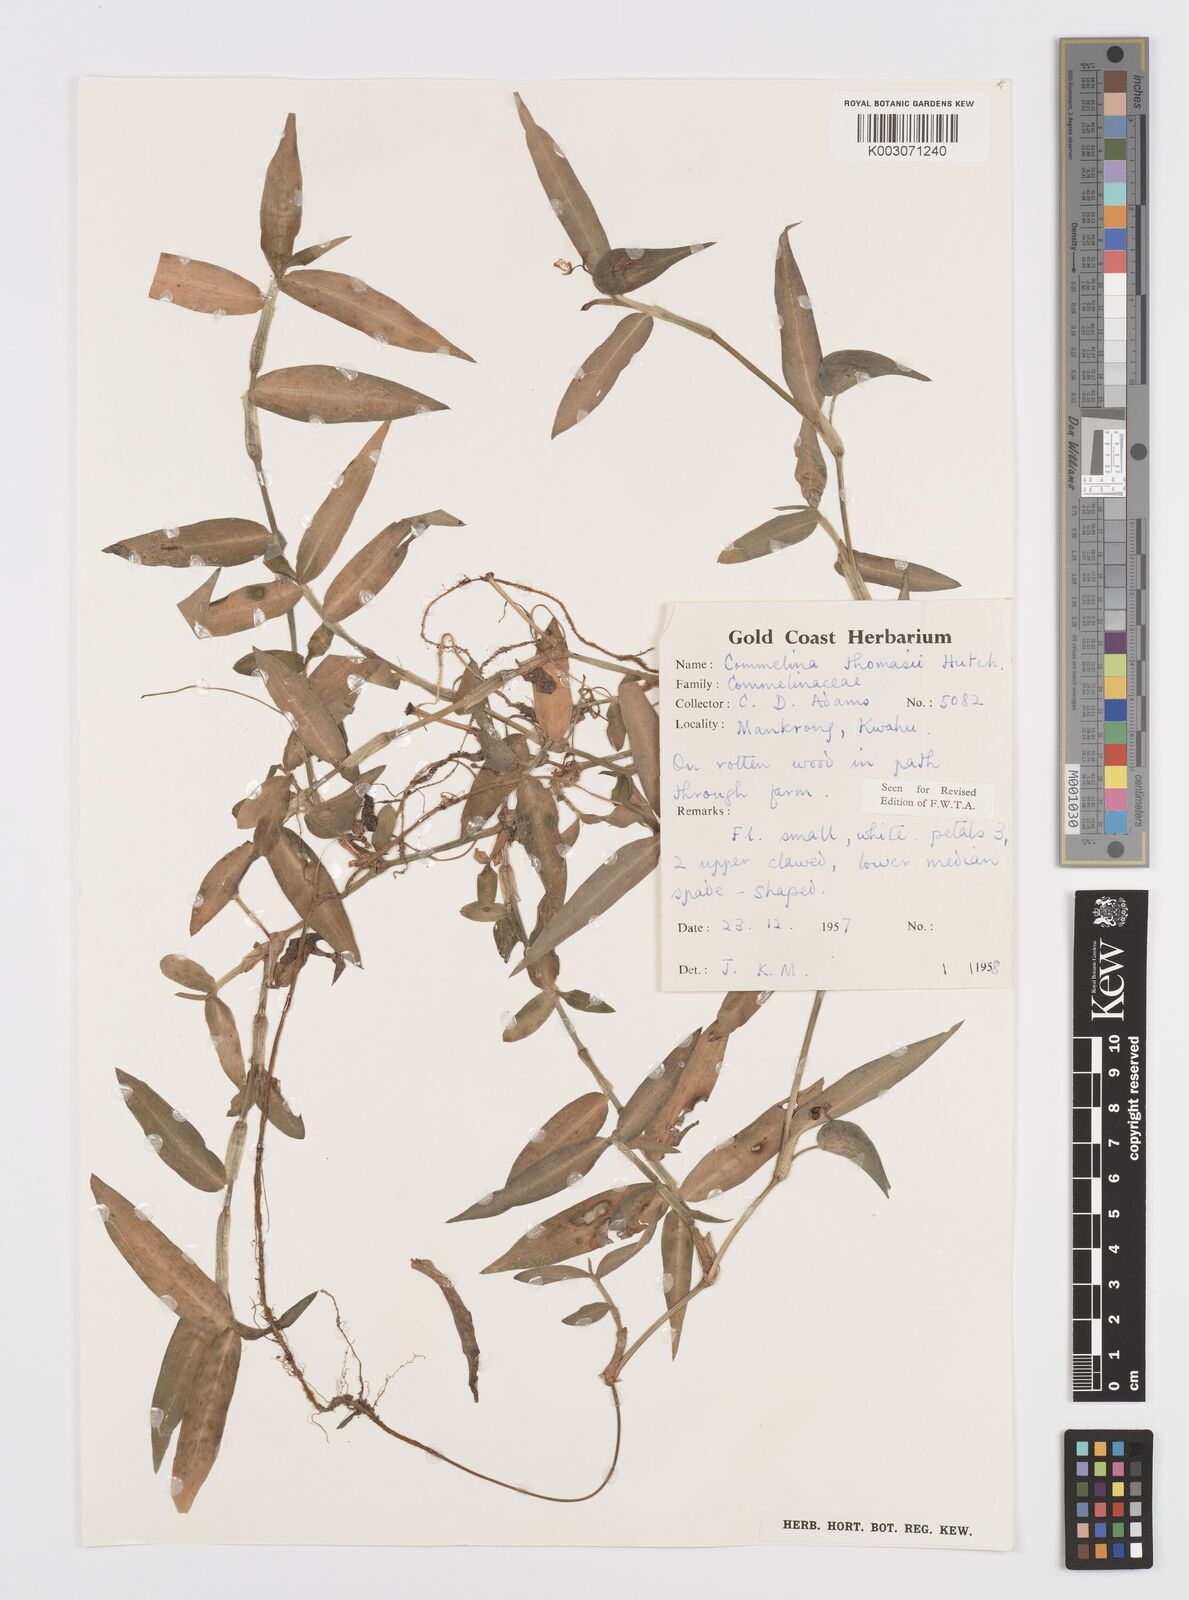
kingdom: Plantae
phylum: Tracheophyta
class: Liliopsida
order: Commelinales
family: Commelinaceae
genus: Commelina
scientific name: Commelina acutispatha
